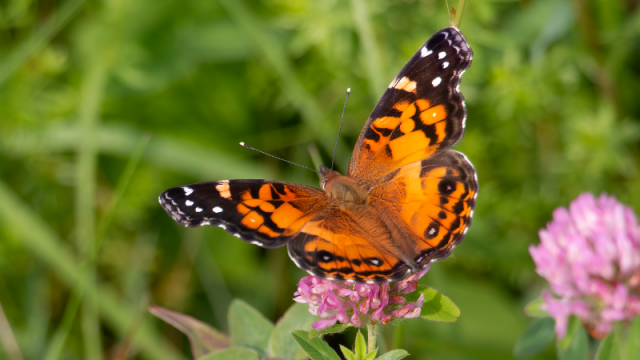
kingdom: Animalia
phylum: Arthropoda
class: Insecta
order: Lepidoptera
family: Nymphalidae
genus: Vanessa
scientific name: Vanessa virginiensis
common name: American Lady
